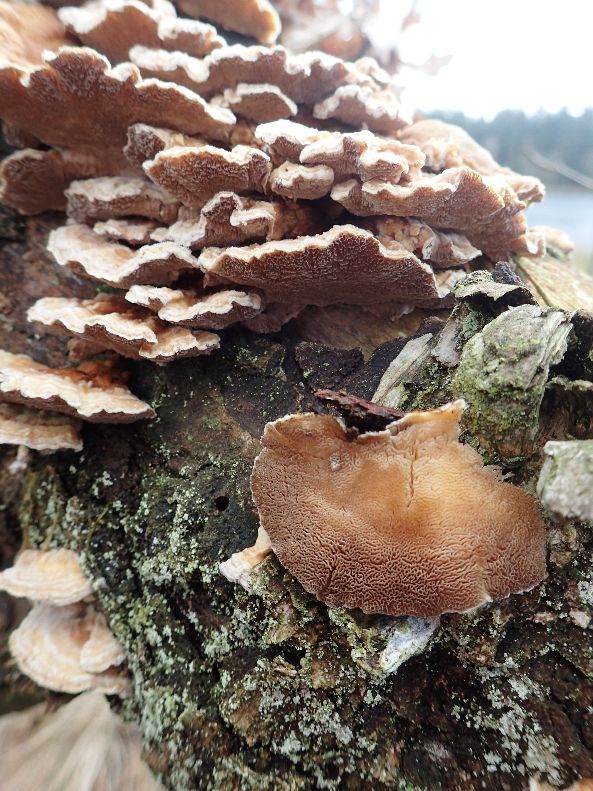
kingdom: Fungi
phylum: Basidiomycota
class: Agaricomycetes
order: Polyporales
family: Polyporaceae
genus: Trametes
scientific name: Trametes ochracea
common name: bæltet læderporesvamp
